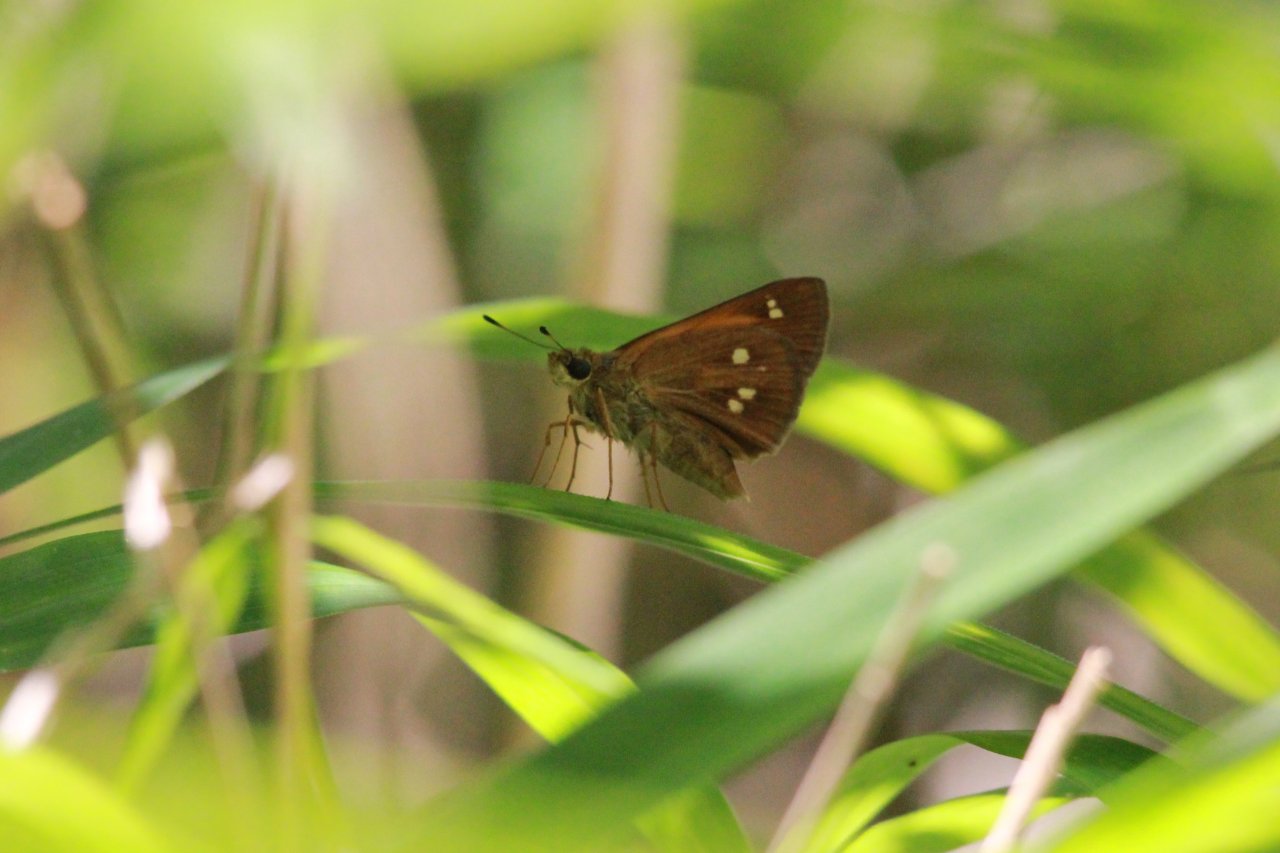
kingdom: Animalia
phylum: Arthropoda
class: Insecta
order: Lepidoptera
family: Hesperiidae
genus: Poanes
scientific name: Poanes yehl
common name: Yehl Skipper
